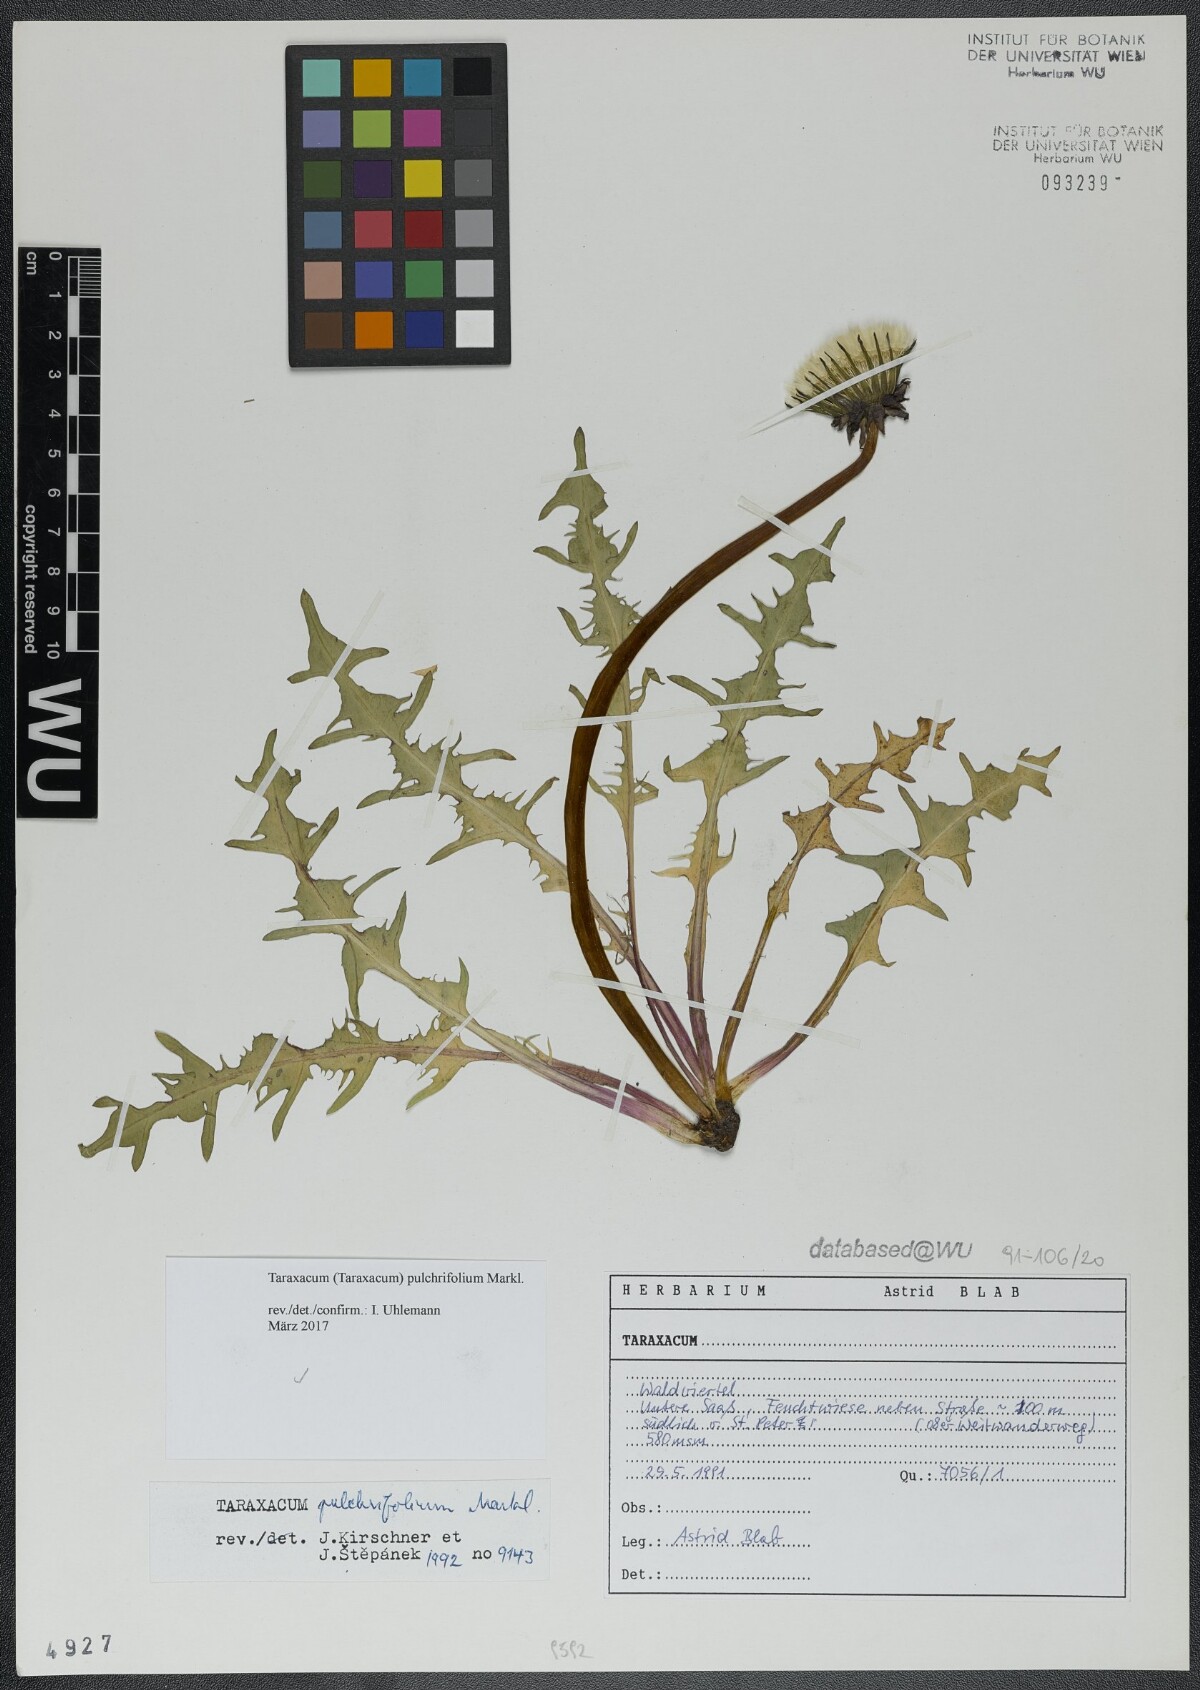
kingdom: Plantae
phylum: Tracheophyta
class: Magnoliopsida
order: Asterales
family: Asteraceae
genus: Taraxacum
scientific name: Taraxacum pulchrifolium
